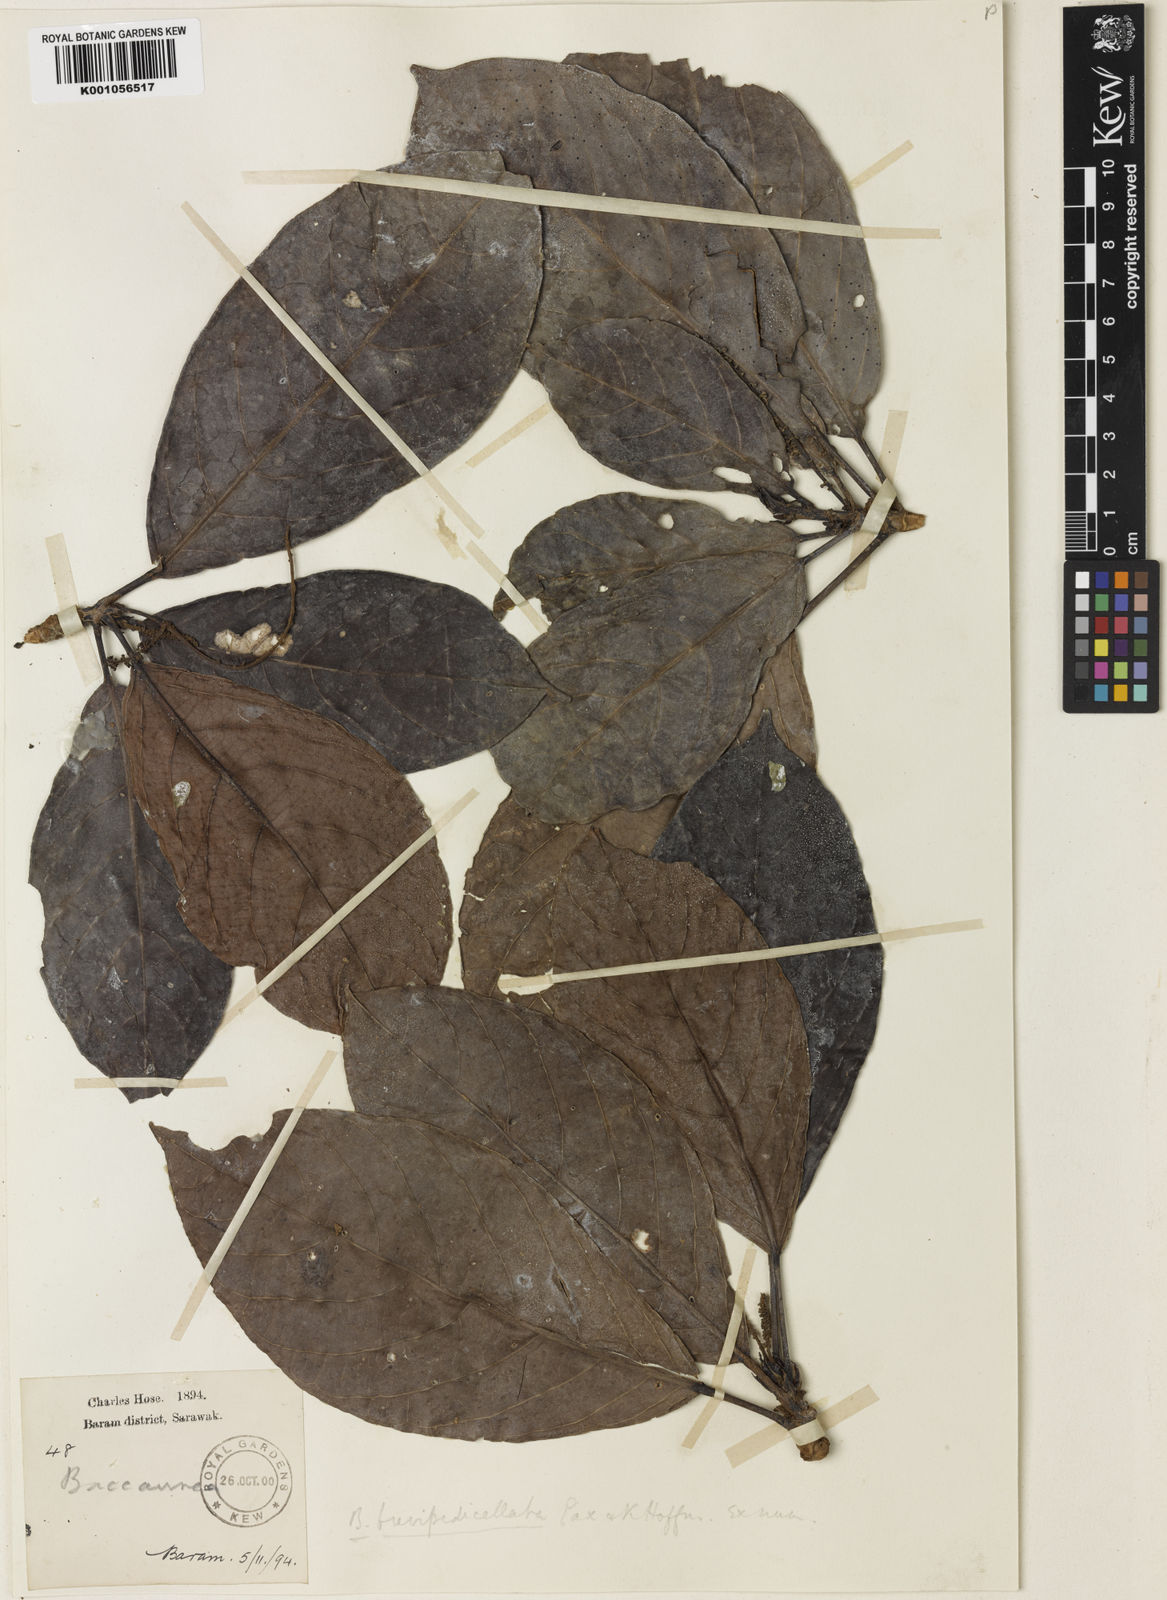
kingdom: Plantae
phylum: Tracheophyta
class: Magnoliopsida
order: Malpighiales
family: Phyllanthaceae
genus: Baccaurea
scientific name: Baccaurea tetrandra
